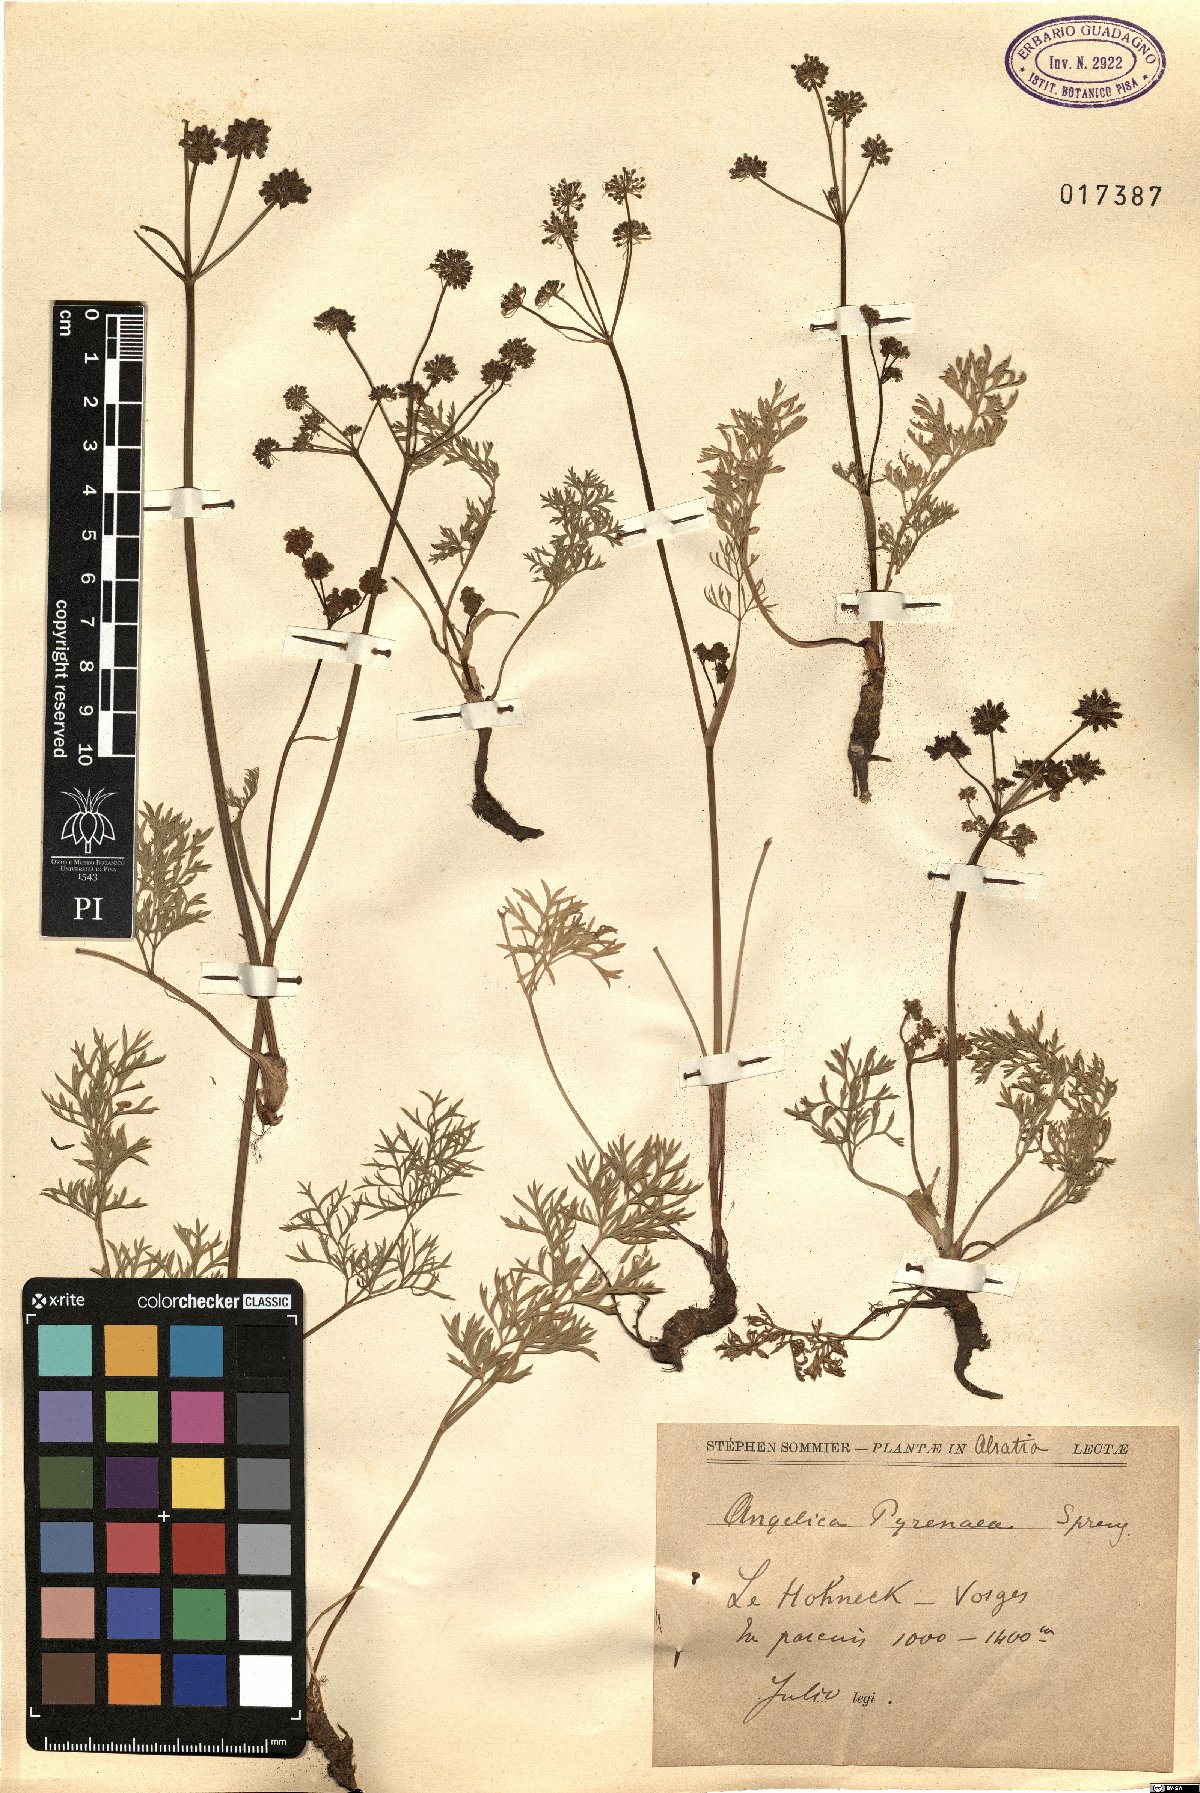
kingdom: Plantae
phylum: Tracheophyta
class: Magnoliopsida
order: Apiales
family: Apiaceae
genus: Epikeros
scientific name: Epikeros pyrenaeus
